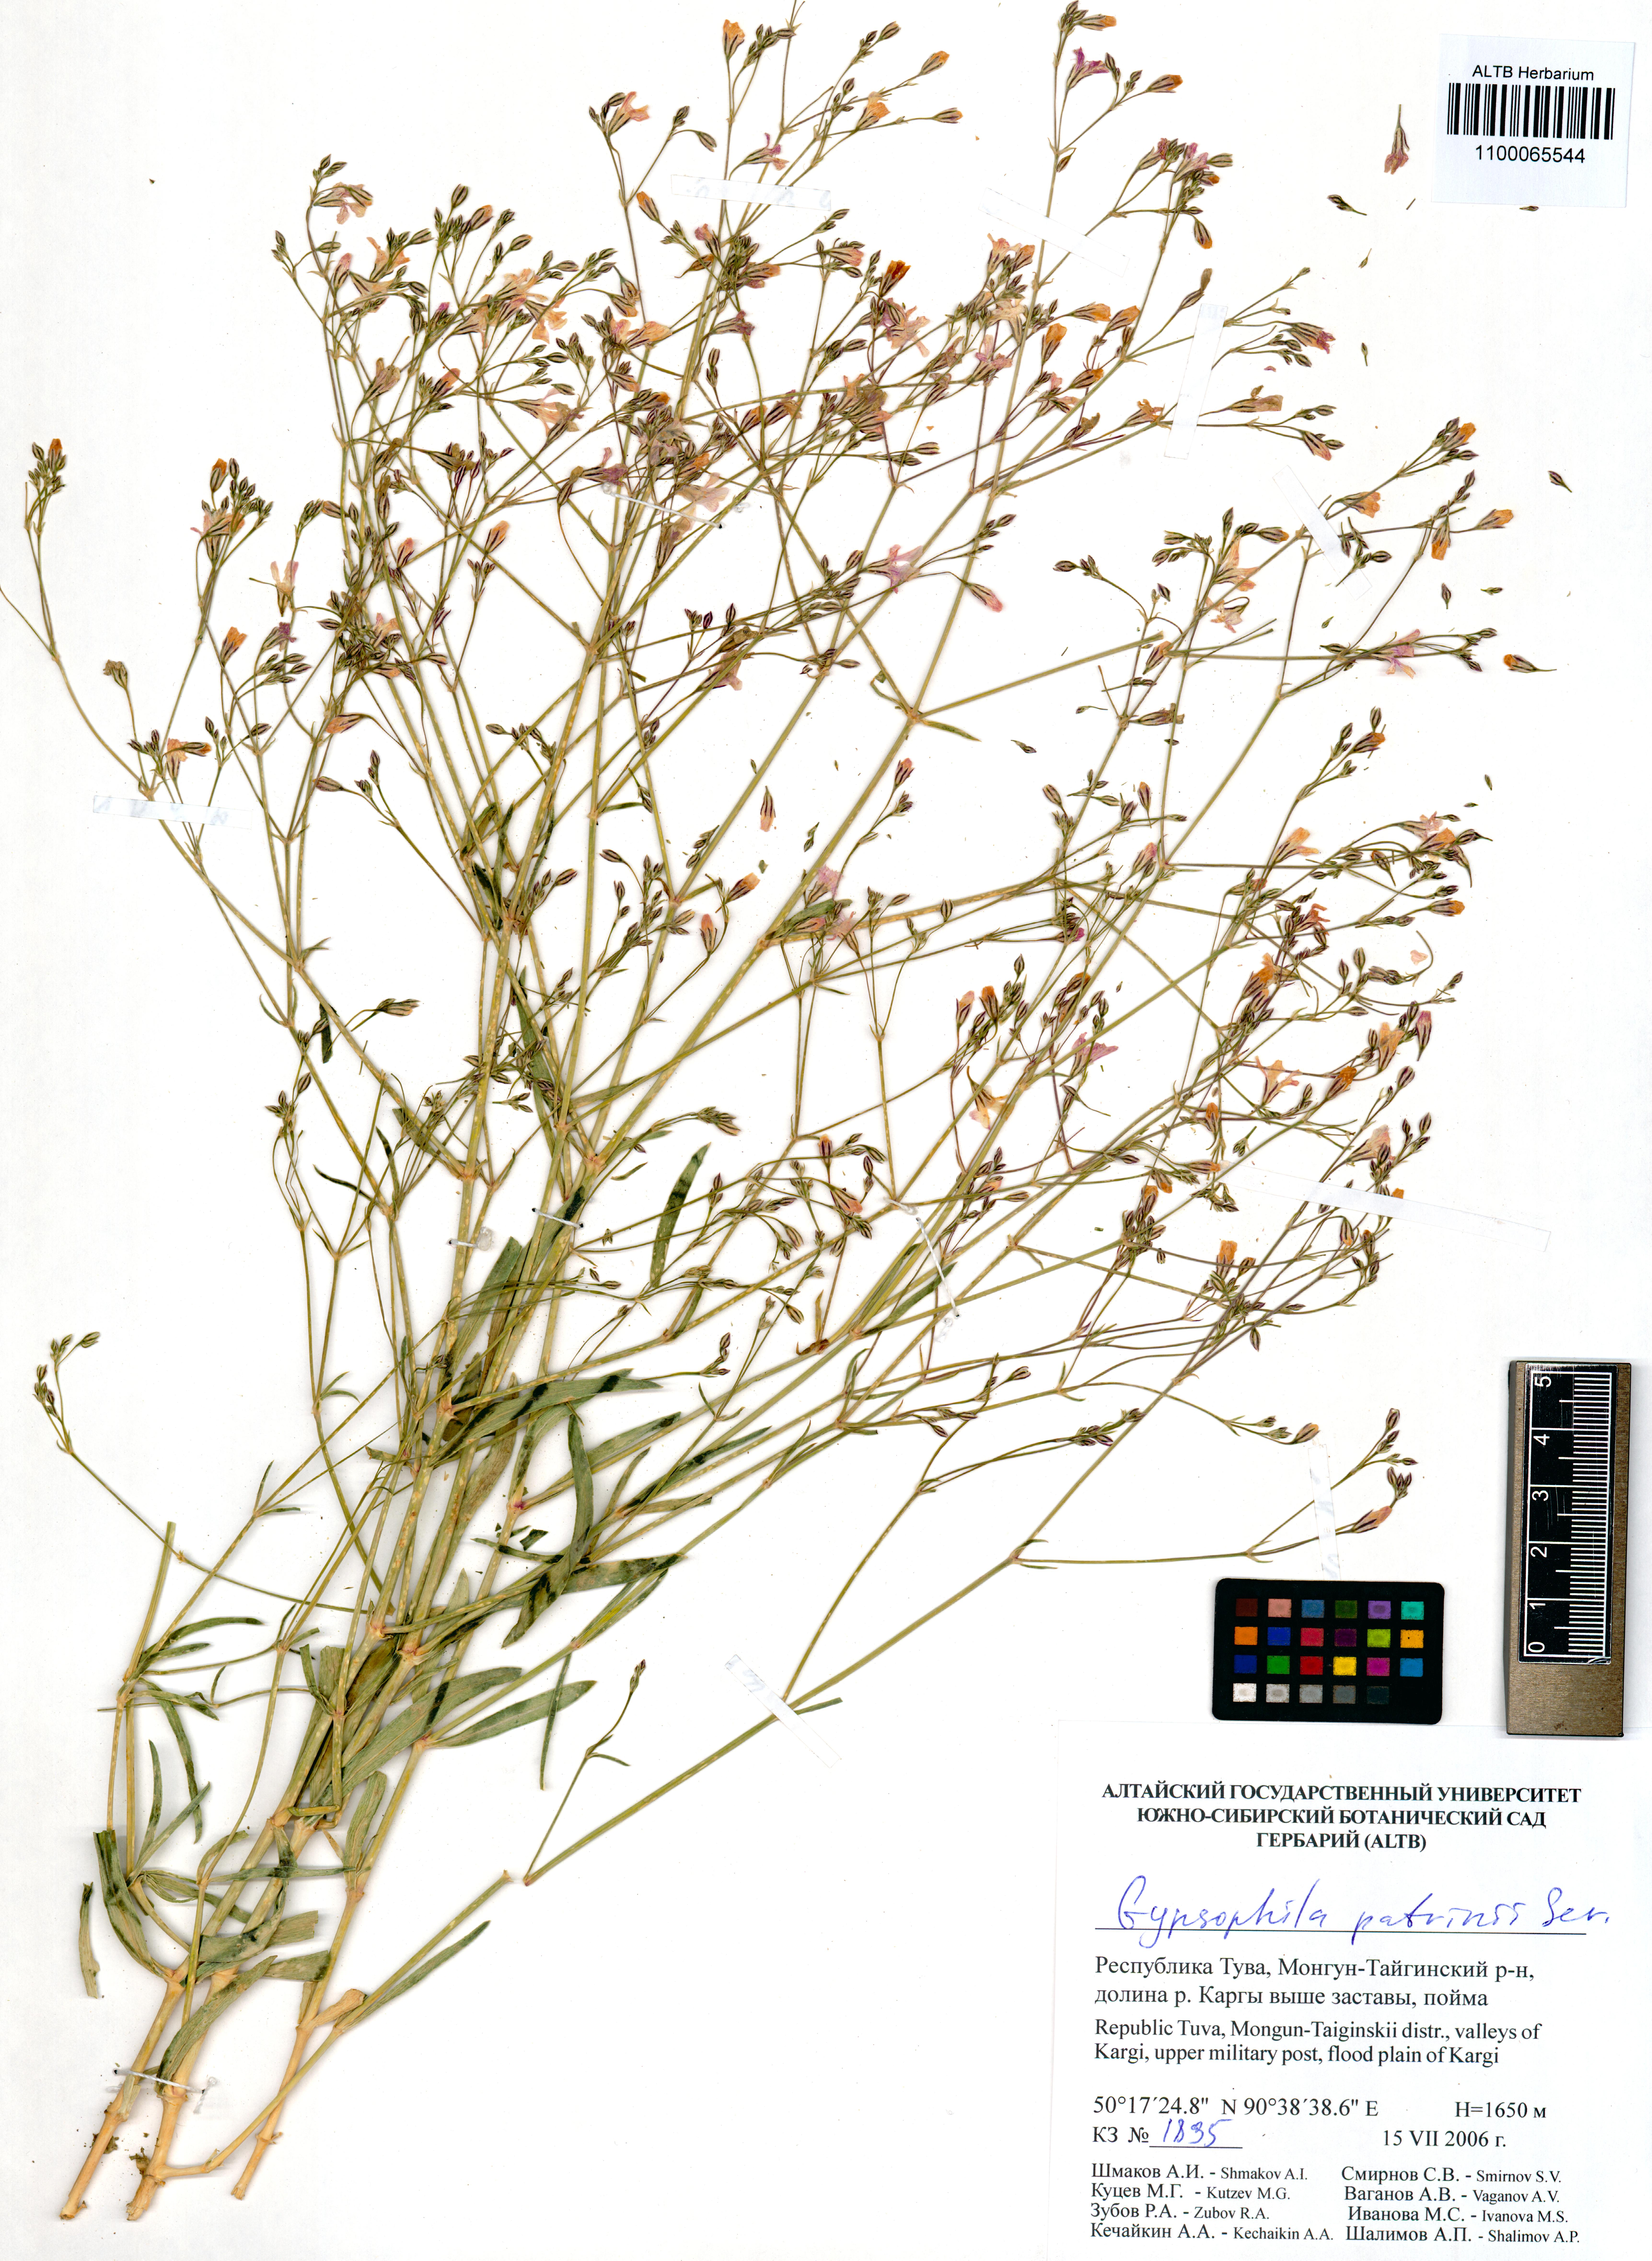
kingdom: Plantae
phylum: Tracheophyta
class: Magnoliopsida
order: Caryophyllales
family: Caryophyllaceae
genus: Gypsophila
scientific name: Gypsophila patrinii
